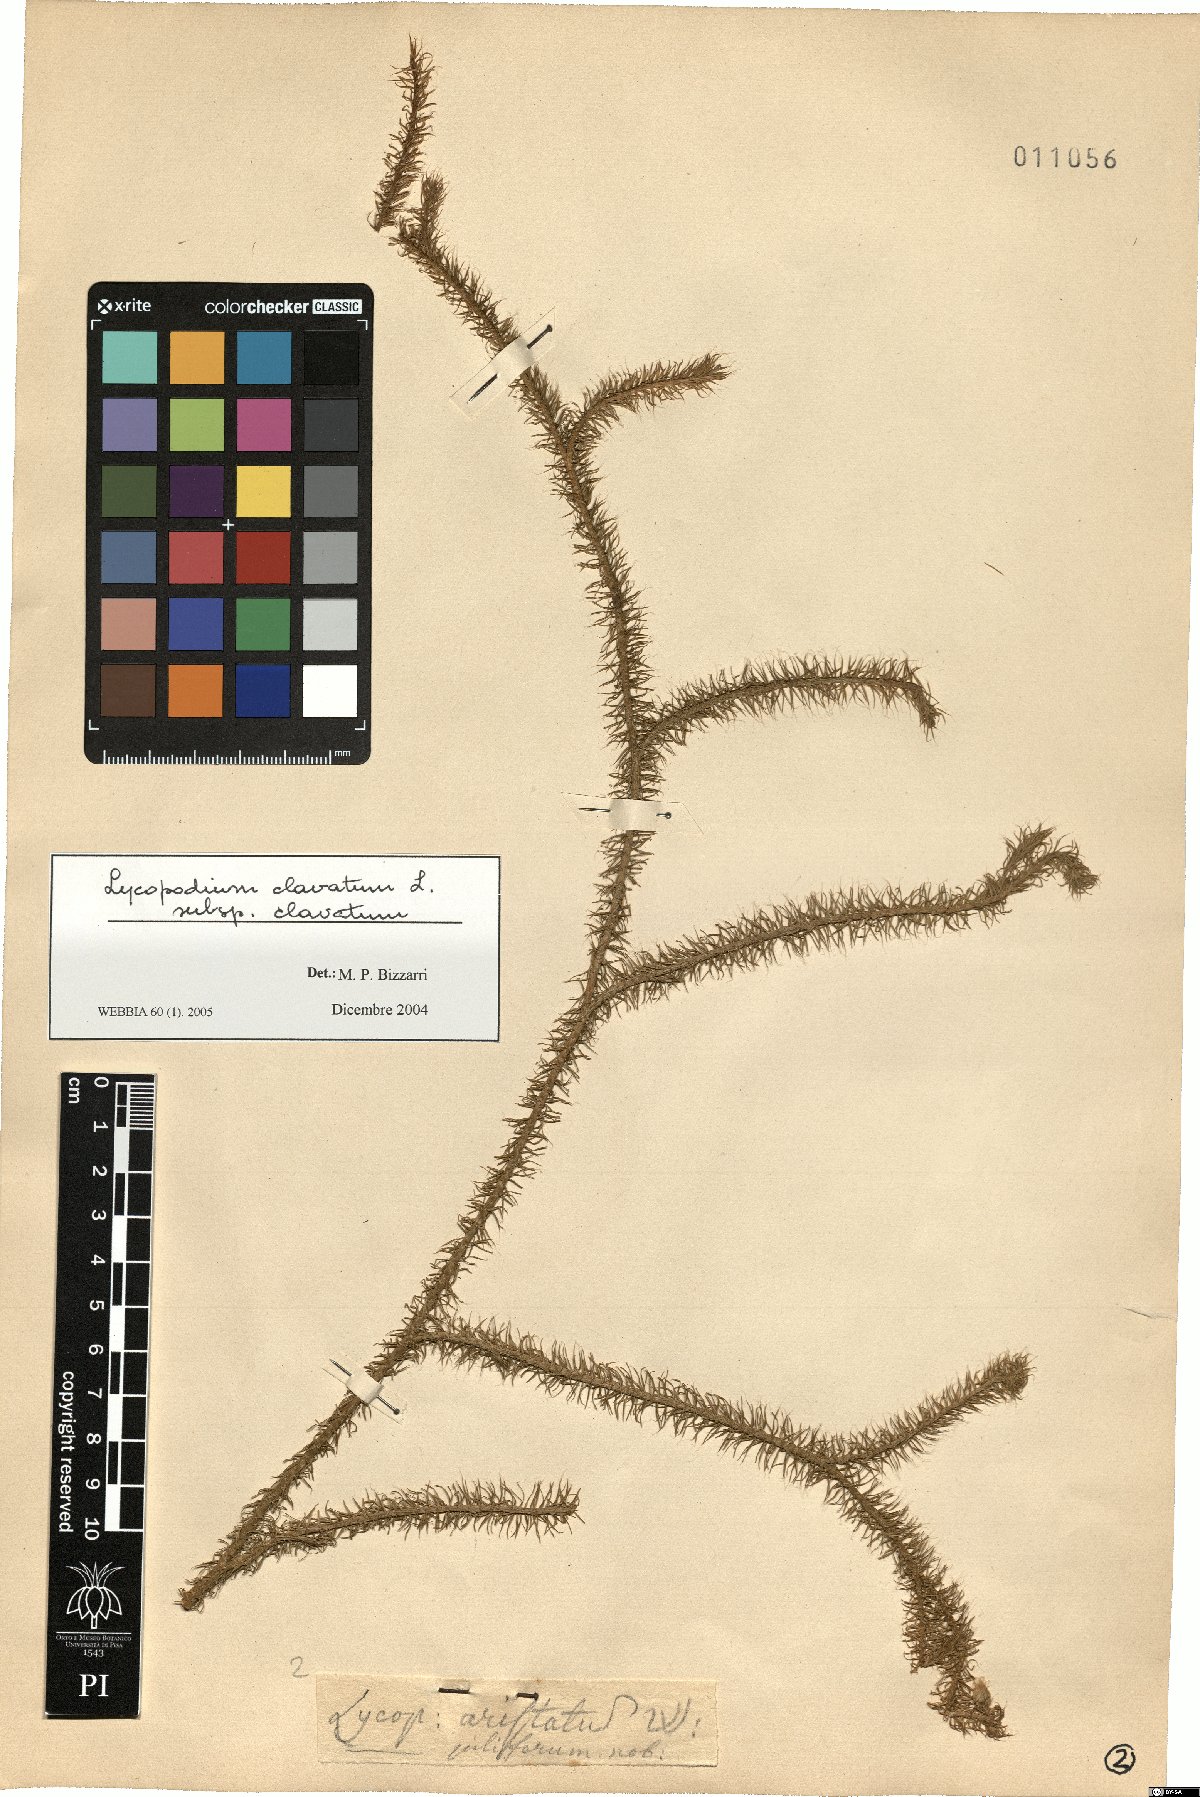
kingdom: Plantae
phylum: Tracheophyta
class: Lycopodiopsida
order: Lycopodiales
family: Lycopodiaceae
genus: Lycopodium
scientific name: Lycopodium clavatum
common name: Stag's-horn clubmoss
